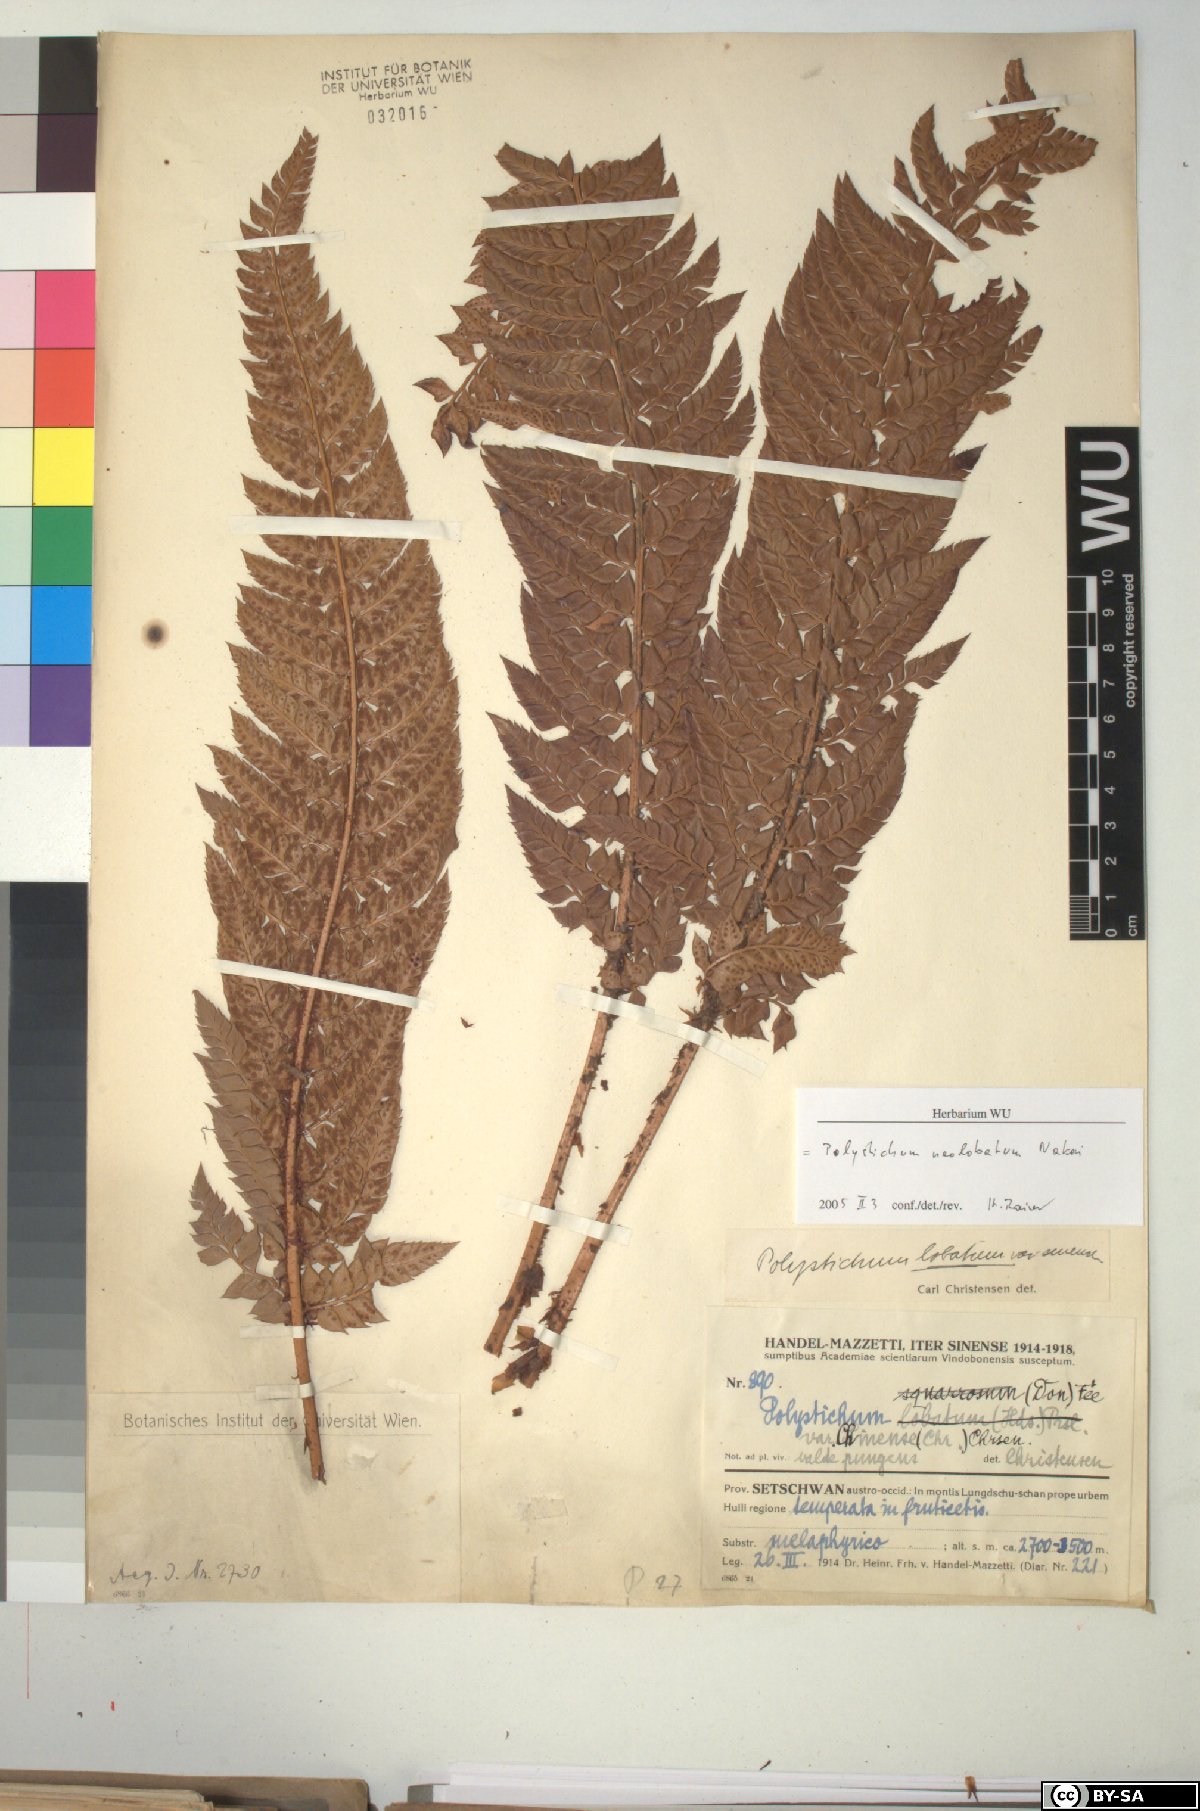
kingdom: Plantae
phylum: Tracheophyta
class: Polypodiopsida
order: Polypodiales
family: Dryopteridaceae
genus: Polystichum
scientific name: Polystichum neolobatum
